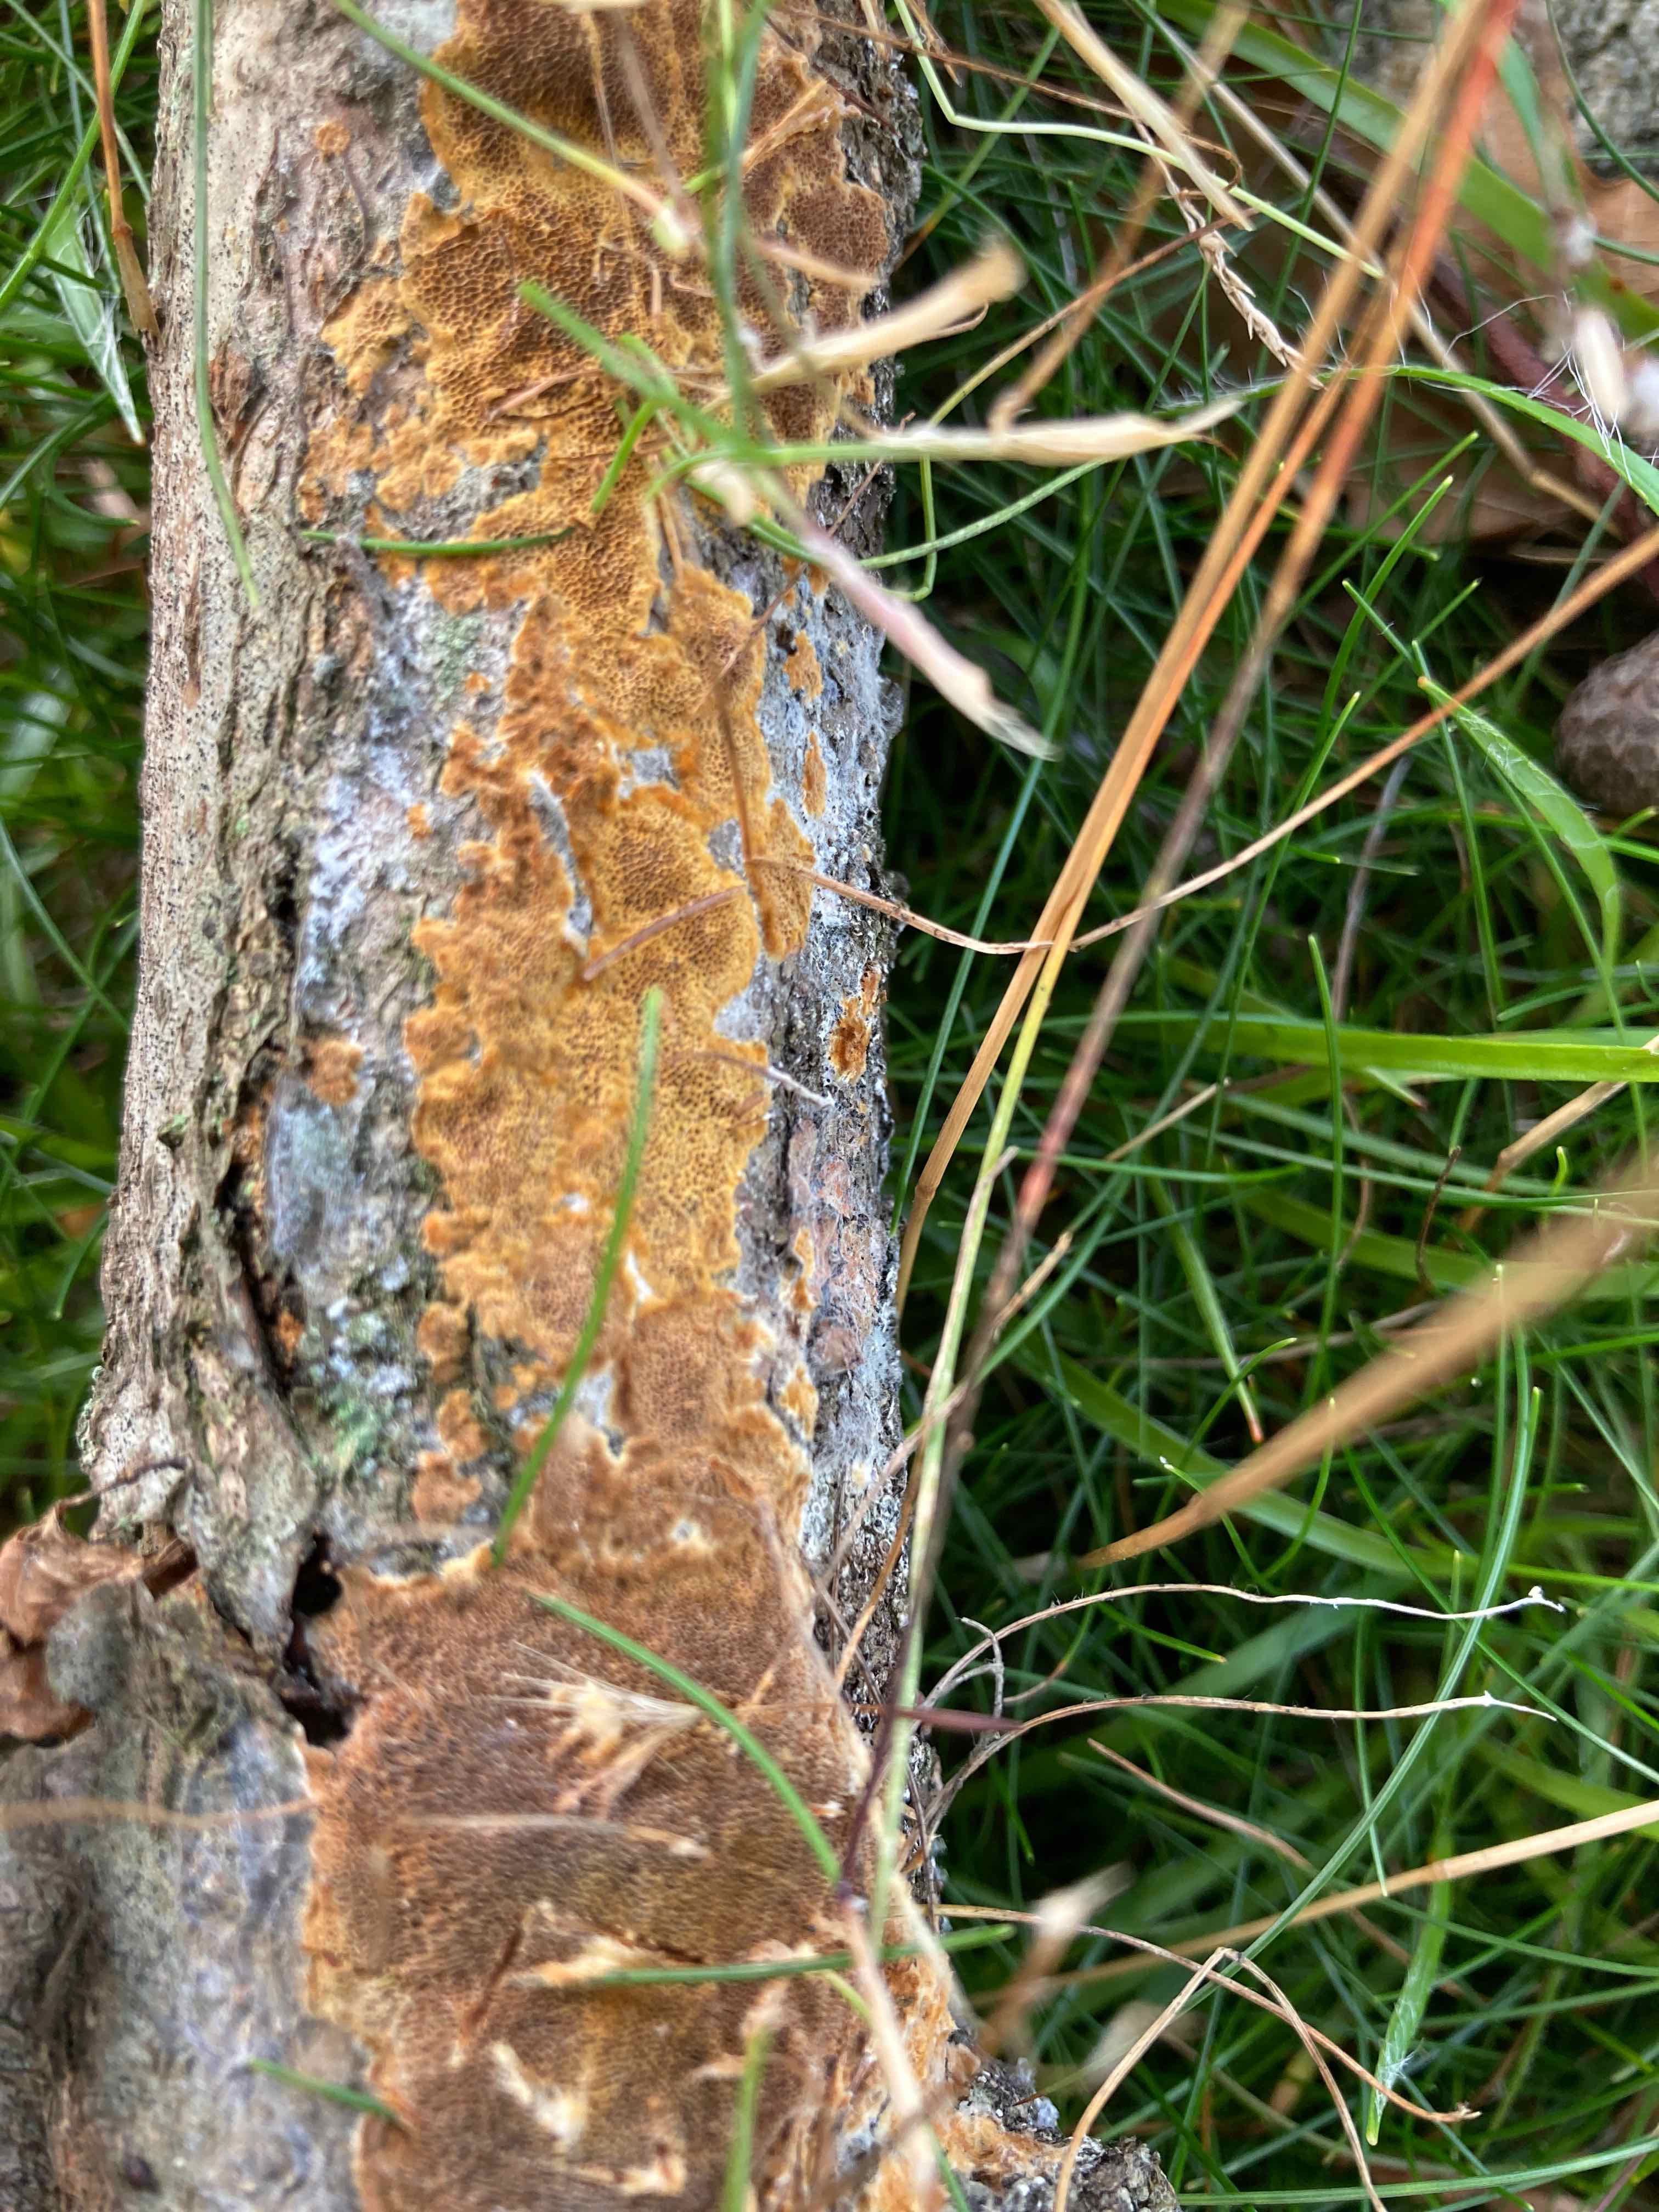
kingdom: Fungi
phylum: Basidiomycota
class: Agaricomycetes
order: Hymenochaetales
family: Hymenochaetaceae
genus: Fuscoporia
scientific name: Fuscoporia ferrea
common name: skorpe-ildporesvamp
